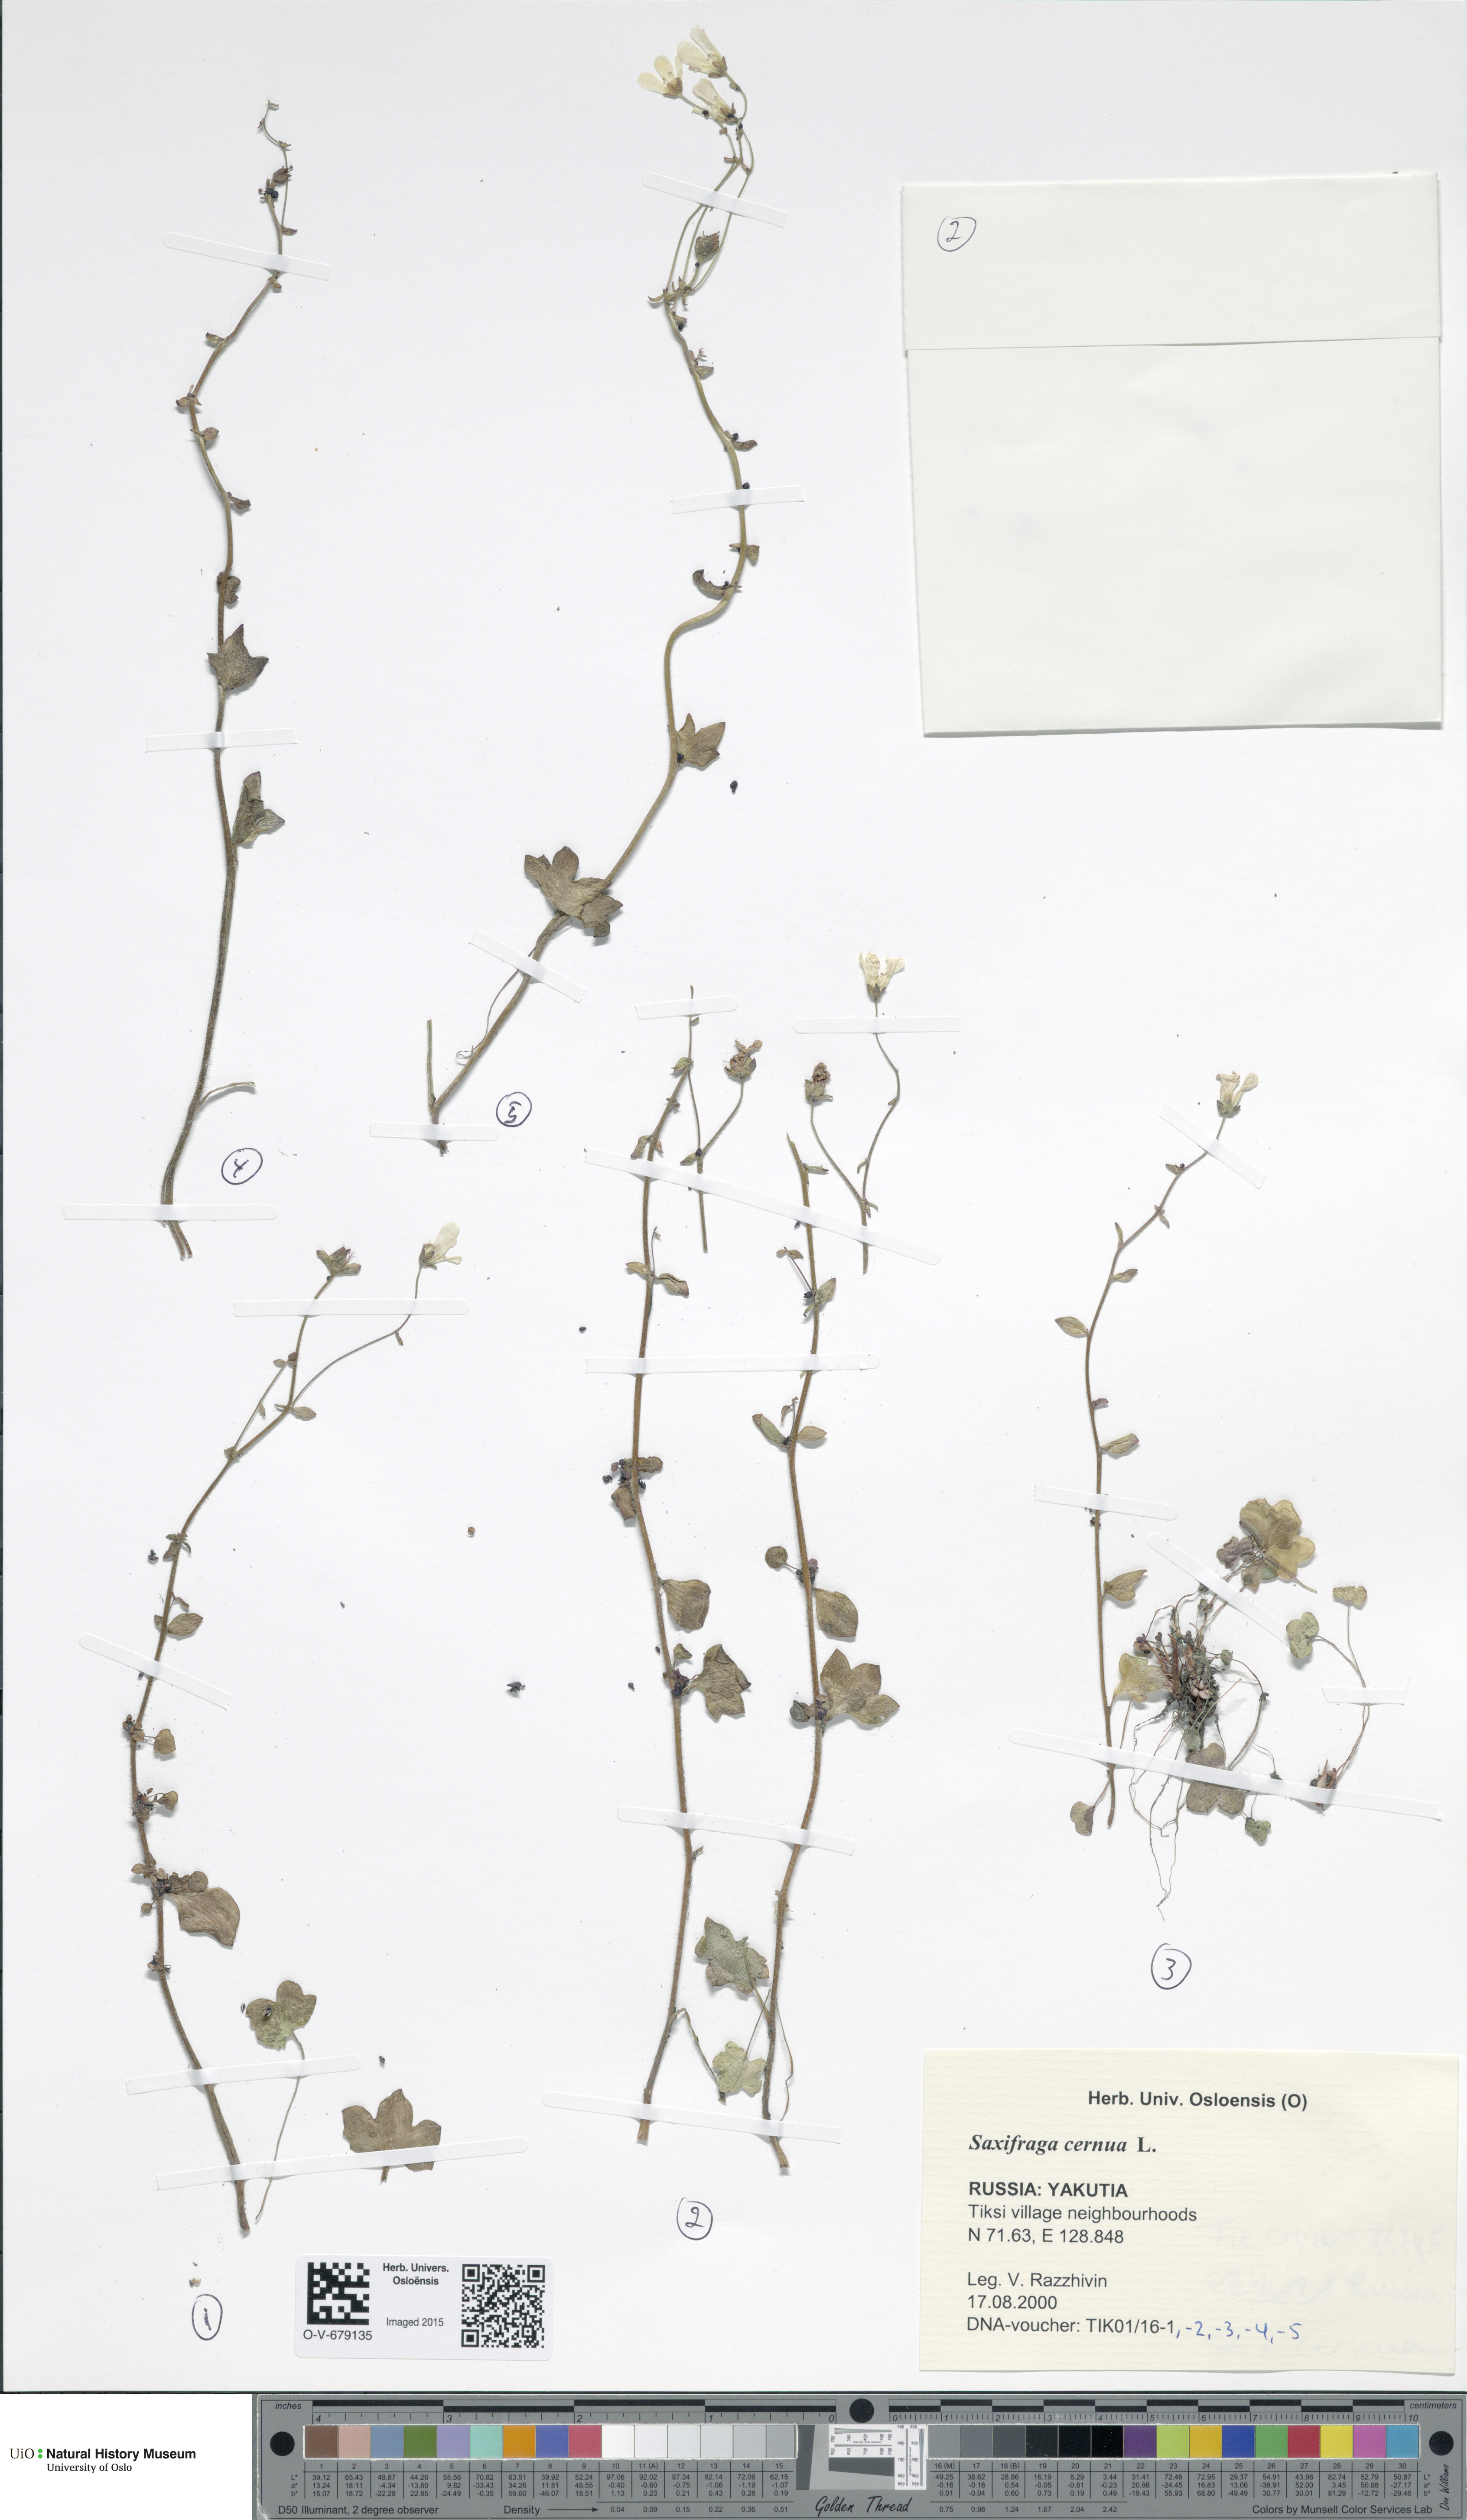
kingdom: Plantae
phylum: Tracheophyta
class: Magnoliopsida
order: Saxifragales
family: Saxifragaceae
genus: Saxifraga
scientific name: Saxifraga cernua
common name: Drooping saxifrage
